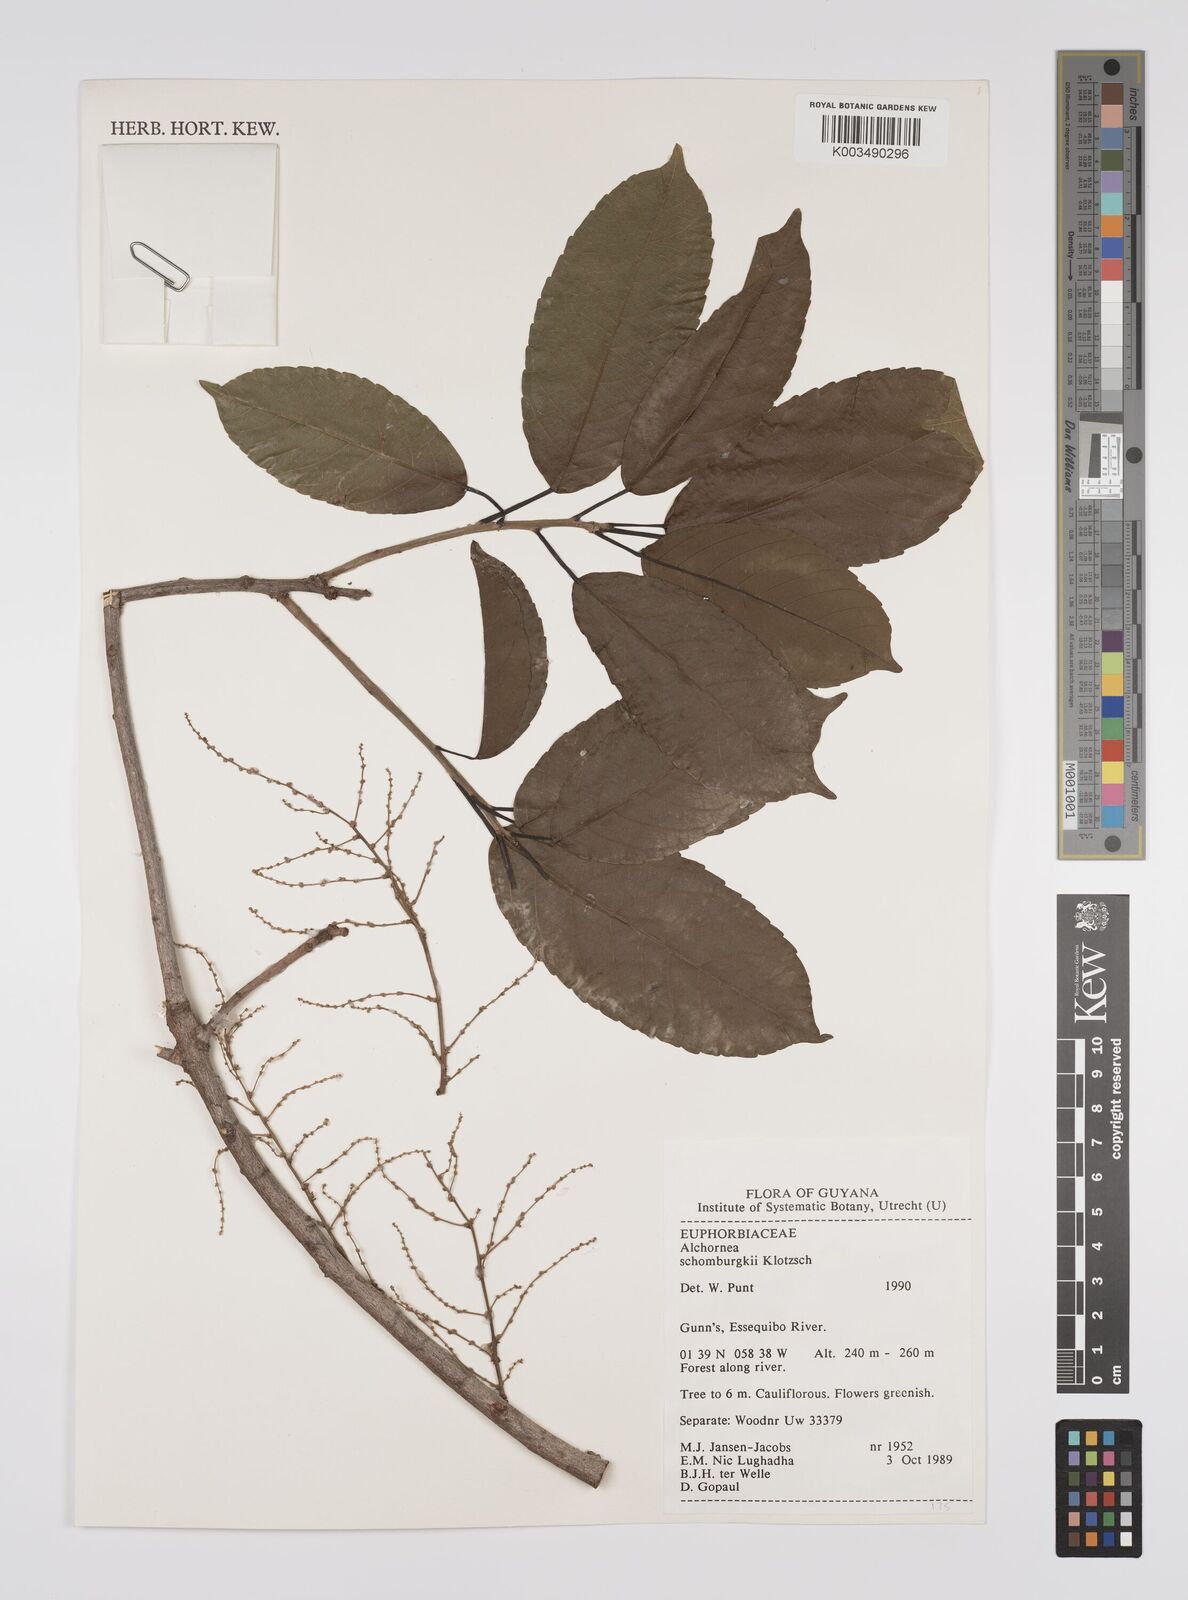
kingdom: Plantae
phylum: Tracheophyta
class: Magnoliopsida
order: Malpighiales
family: Euphorbiaceae
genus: Alchornea
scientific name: Alchornea discolor
